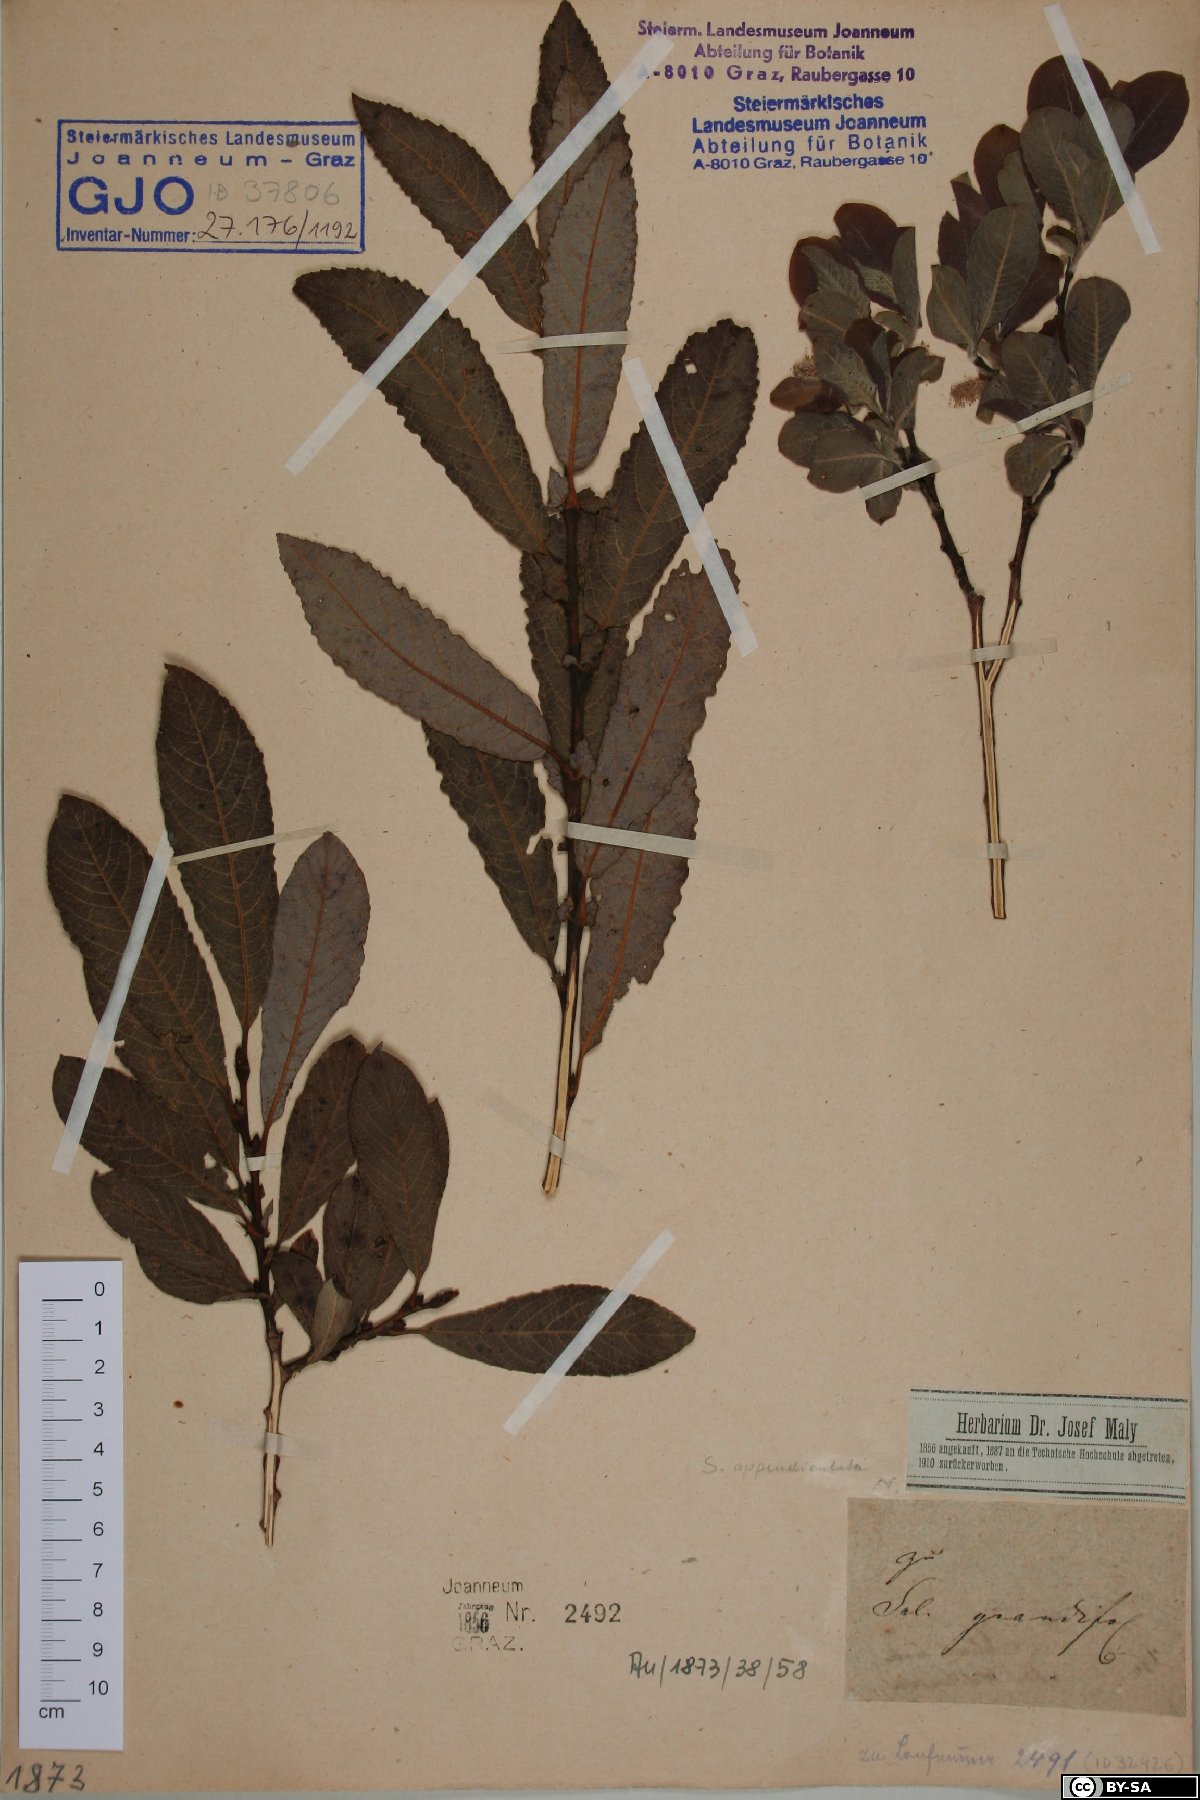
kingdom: Plantae
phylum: Tracheophyta
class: Magnoliopsida
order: Malpighiales
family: Salicaceae
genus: Salix
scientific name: Salix appendiculata
